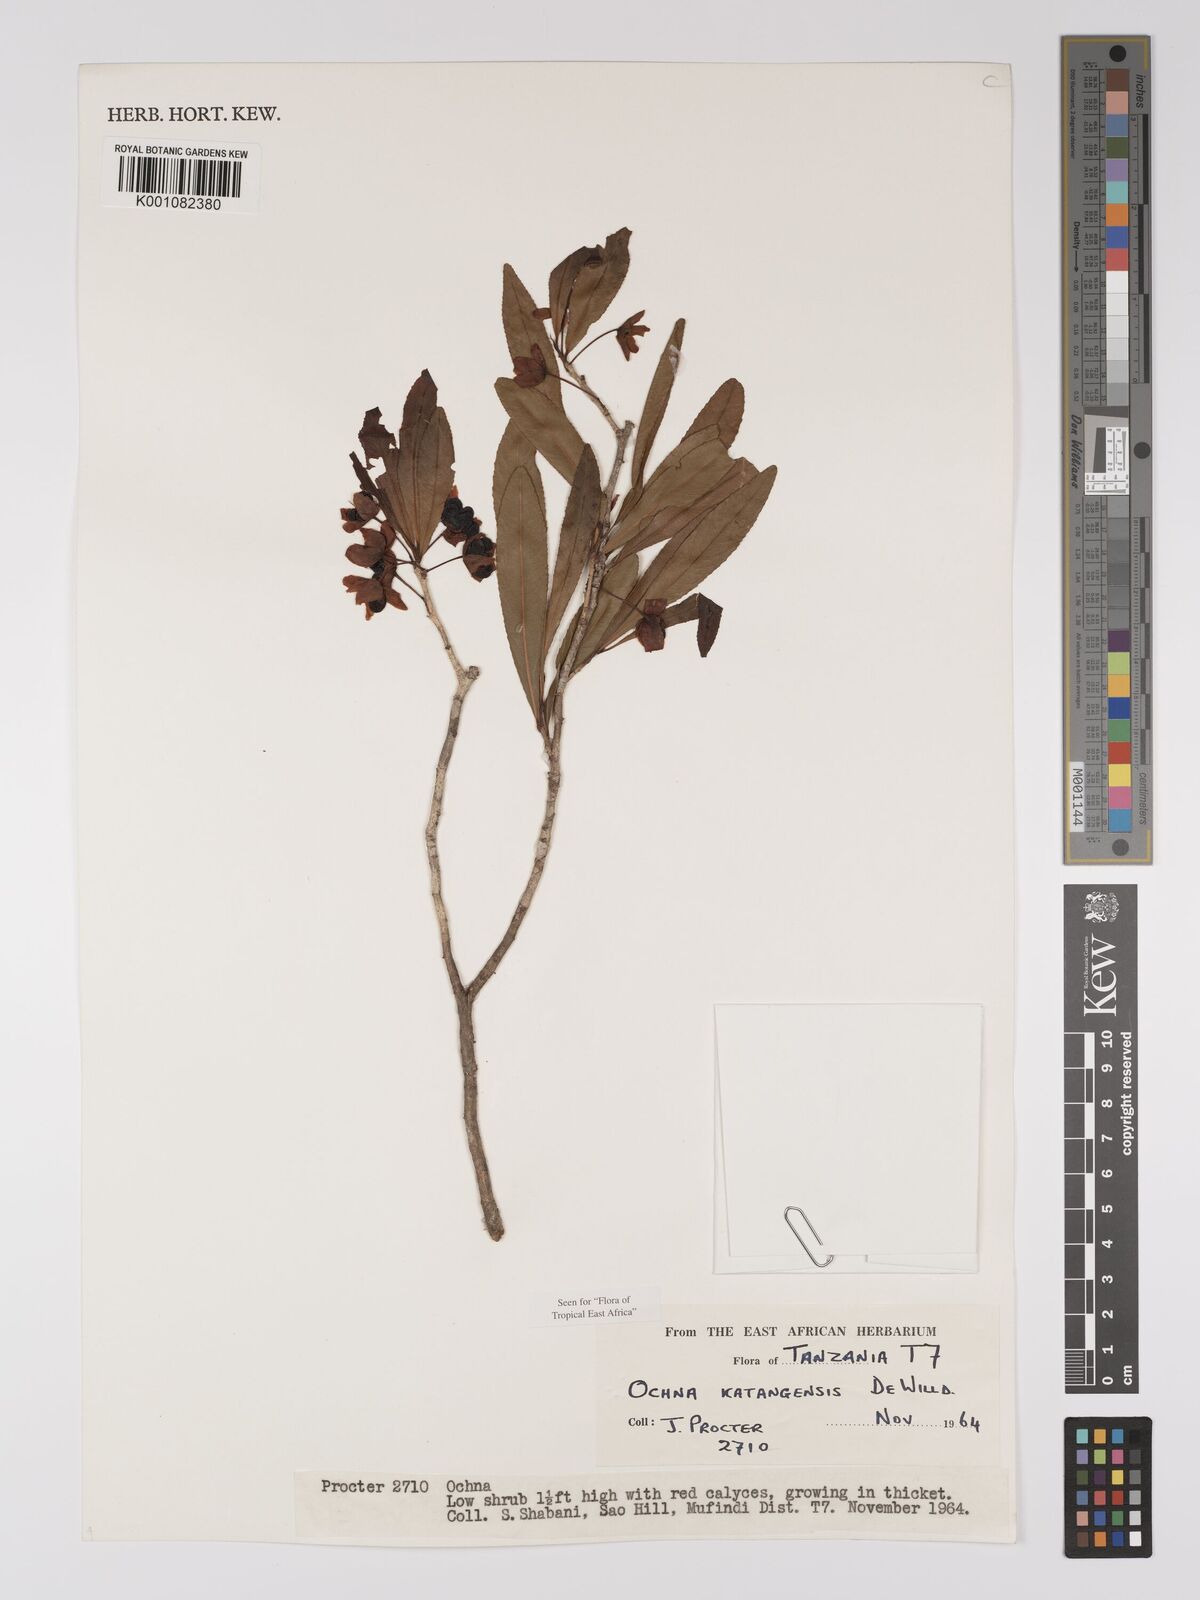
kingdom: Plantae
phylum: Tracheophyta
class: Magnoliopsida
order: Malpighiales
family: Ochnaceae
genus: Ochna
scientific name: Ochna katangensis
